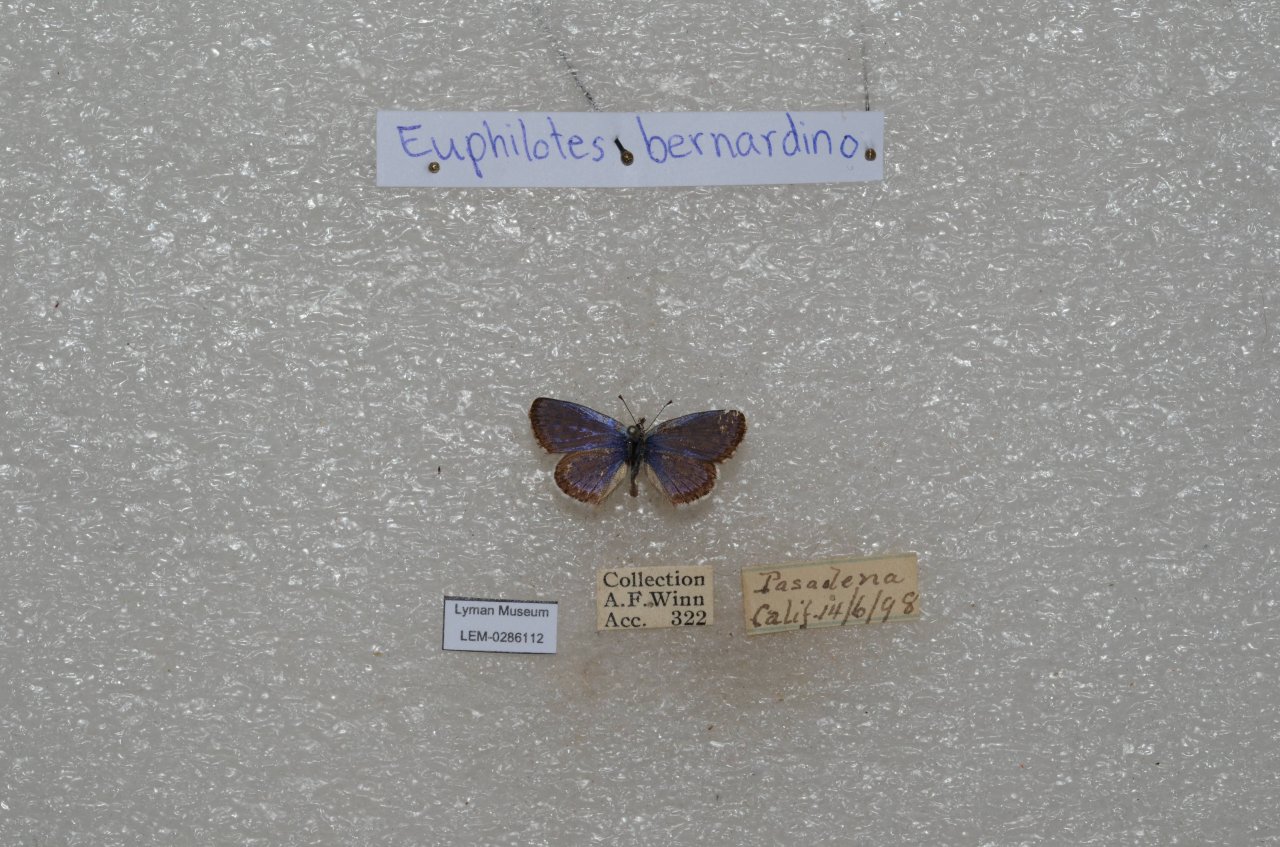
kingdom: Animalia
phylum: Arthropoda
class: Insecta
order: Lepidoptera
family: Lycaenidae
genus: Euphilotes
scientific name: Euphilotes battoides
